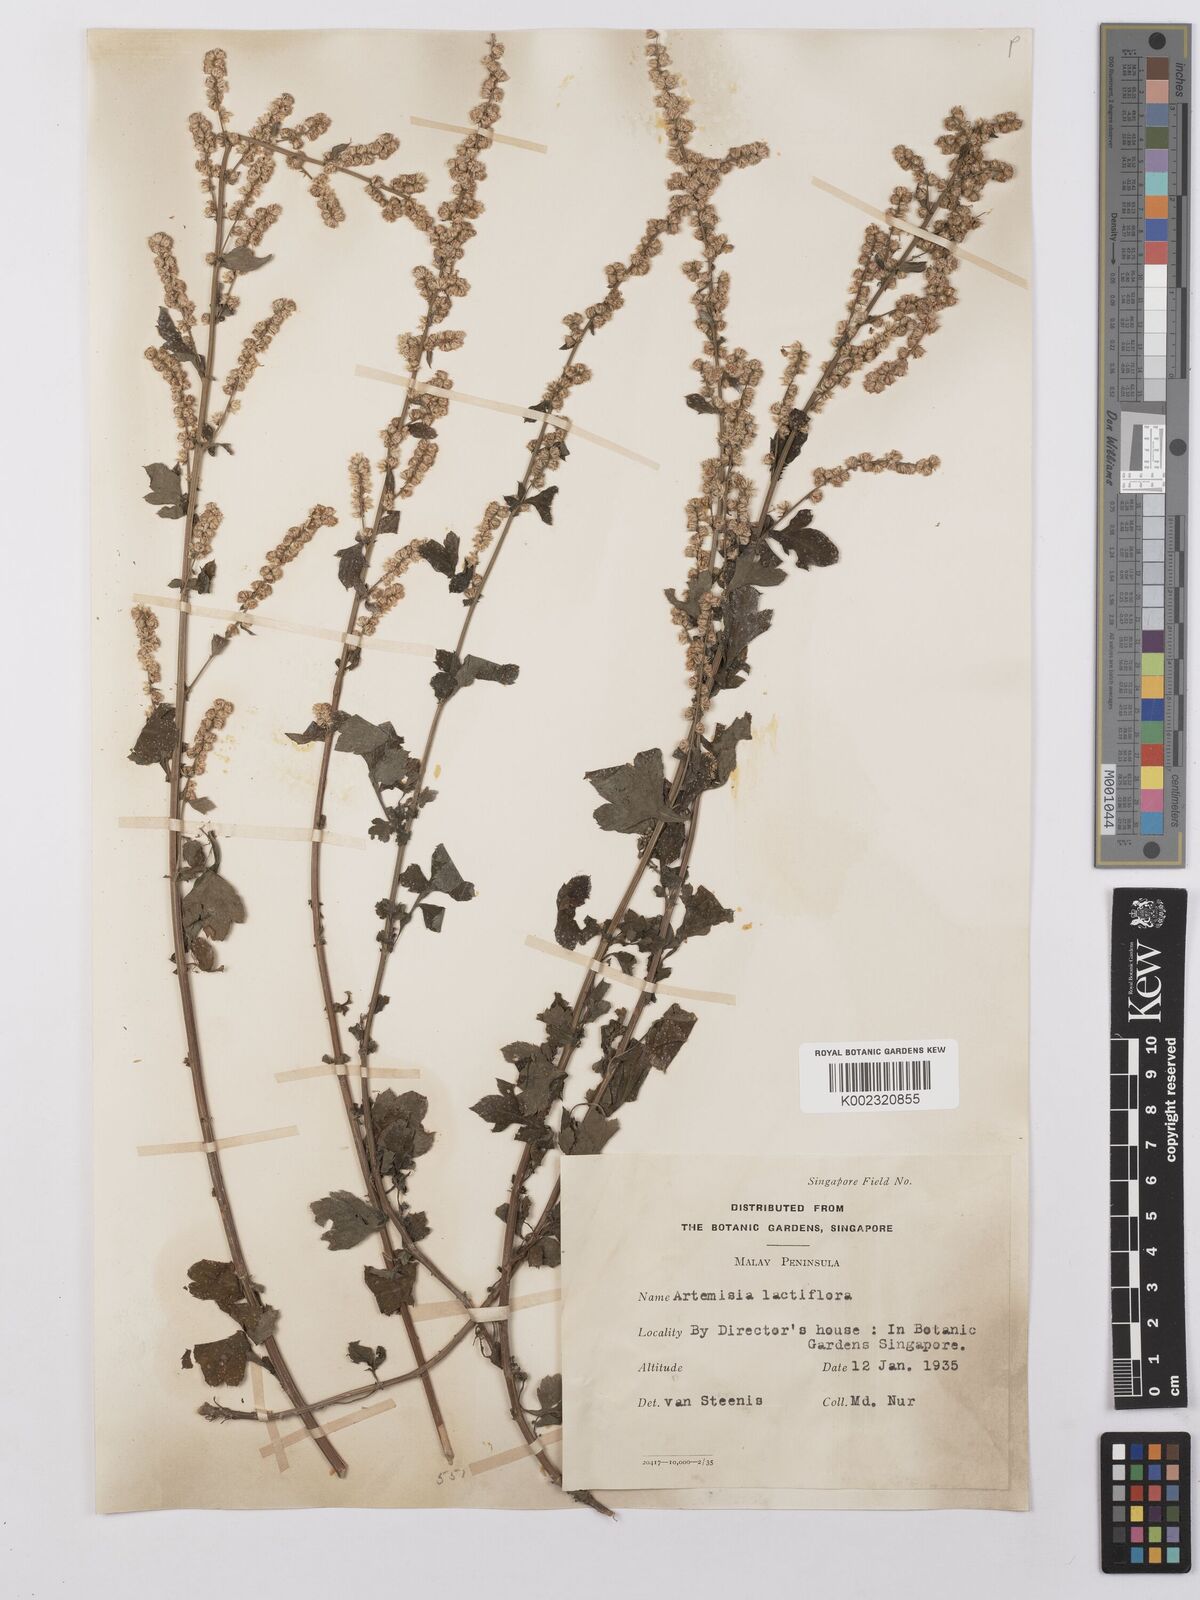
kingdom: Plantae
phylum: Tracheophyta
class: Magnoliopsida
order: Asterales
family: Asteraceae
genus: Artemisia
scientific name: Artemisia lactiflora
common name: White mugwort
